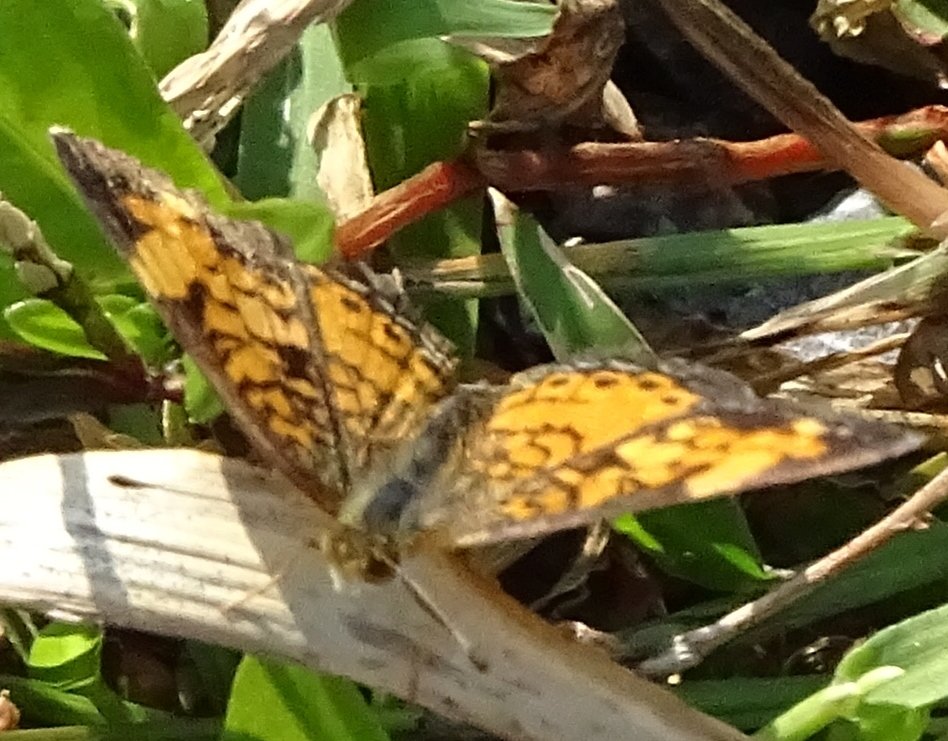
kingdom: Animalia
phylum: Arthropoda
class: Insecta
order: Lepidoptera
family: Nymphalidae
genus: Phyciodes
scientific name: Phyciodes
